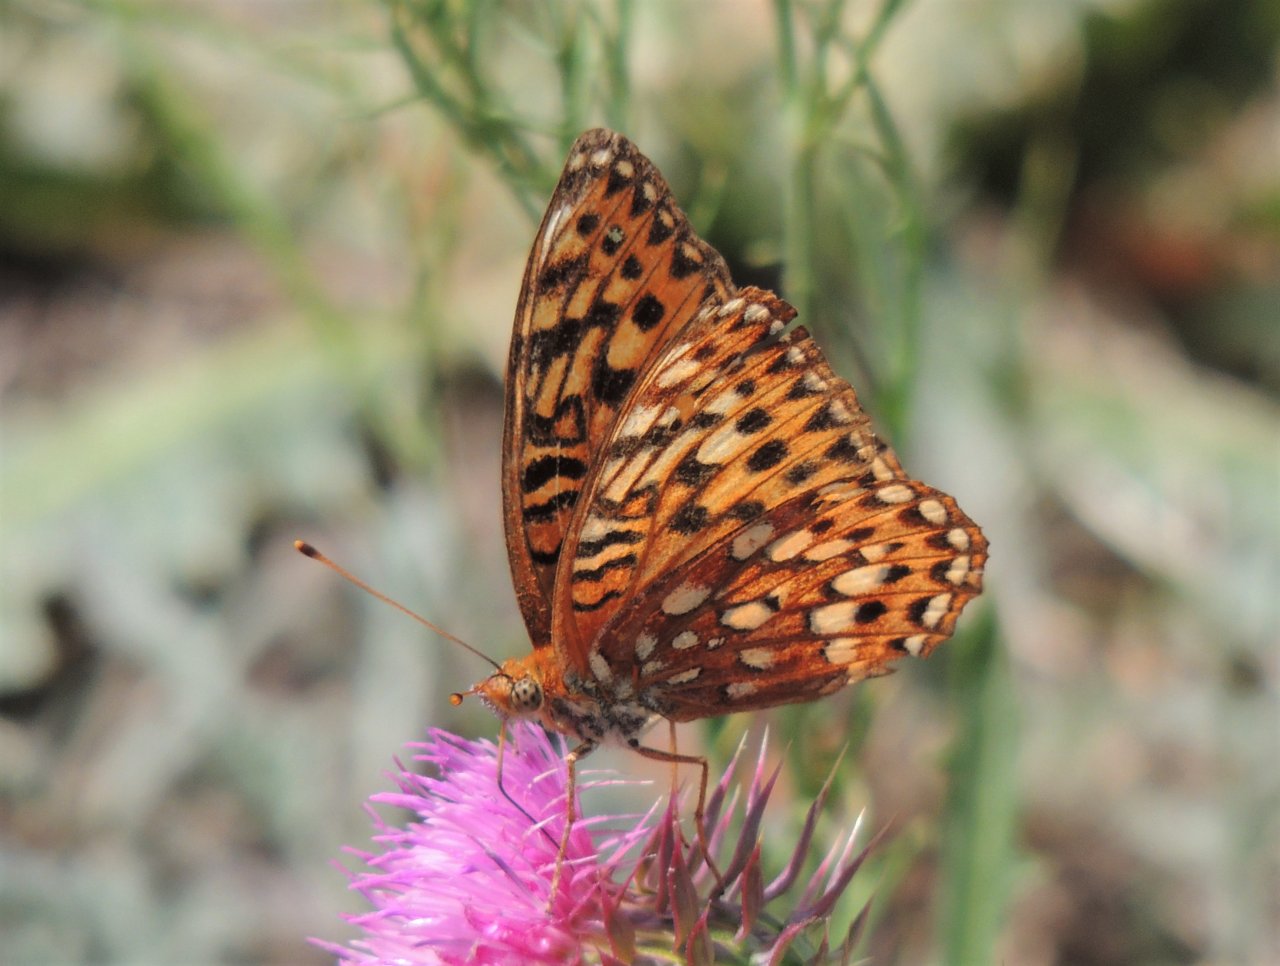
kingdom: Animalia
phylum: Arthropoda
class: Insecta
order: Lepidoptera
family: Nymphalidae
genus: Speyeria
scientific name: Speyeria hydaspe
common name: Hydaspe Fritillary
